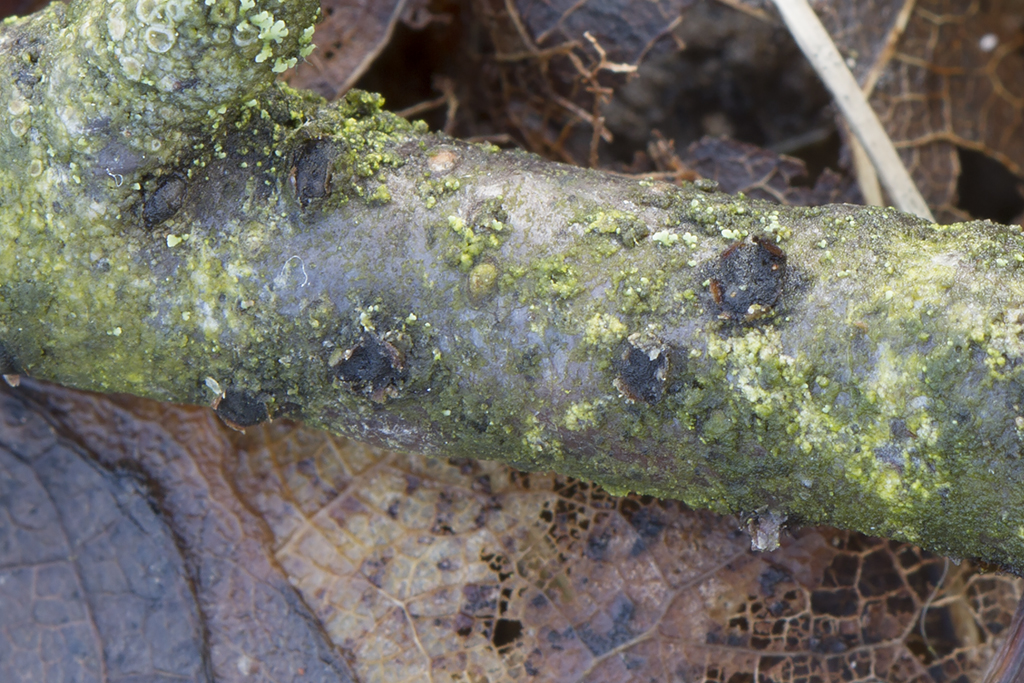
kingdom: Fungi
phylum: Ascomycota
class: Dothideomycetes
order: Pleosporales
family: Lophiostomataceae
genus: Lophiostoma
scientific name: Lophiostoma macrostomum
